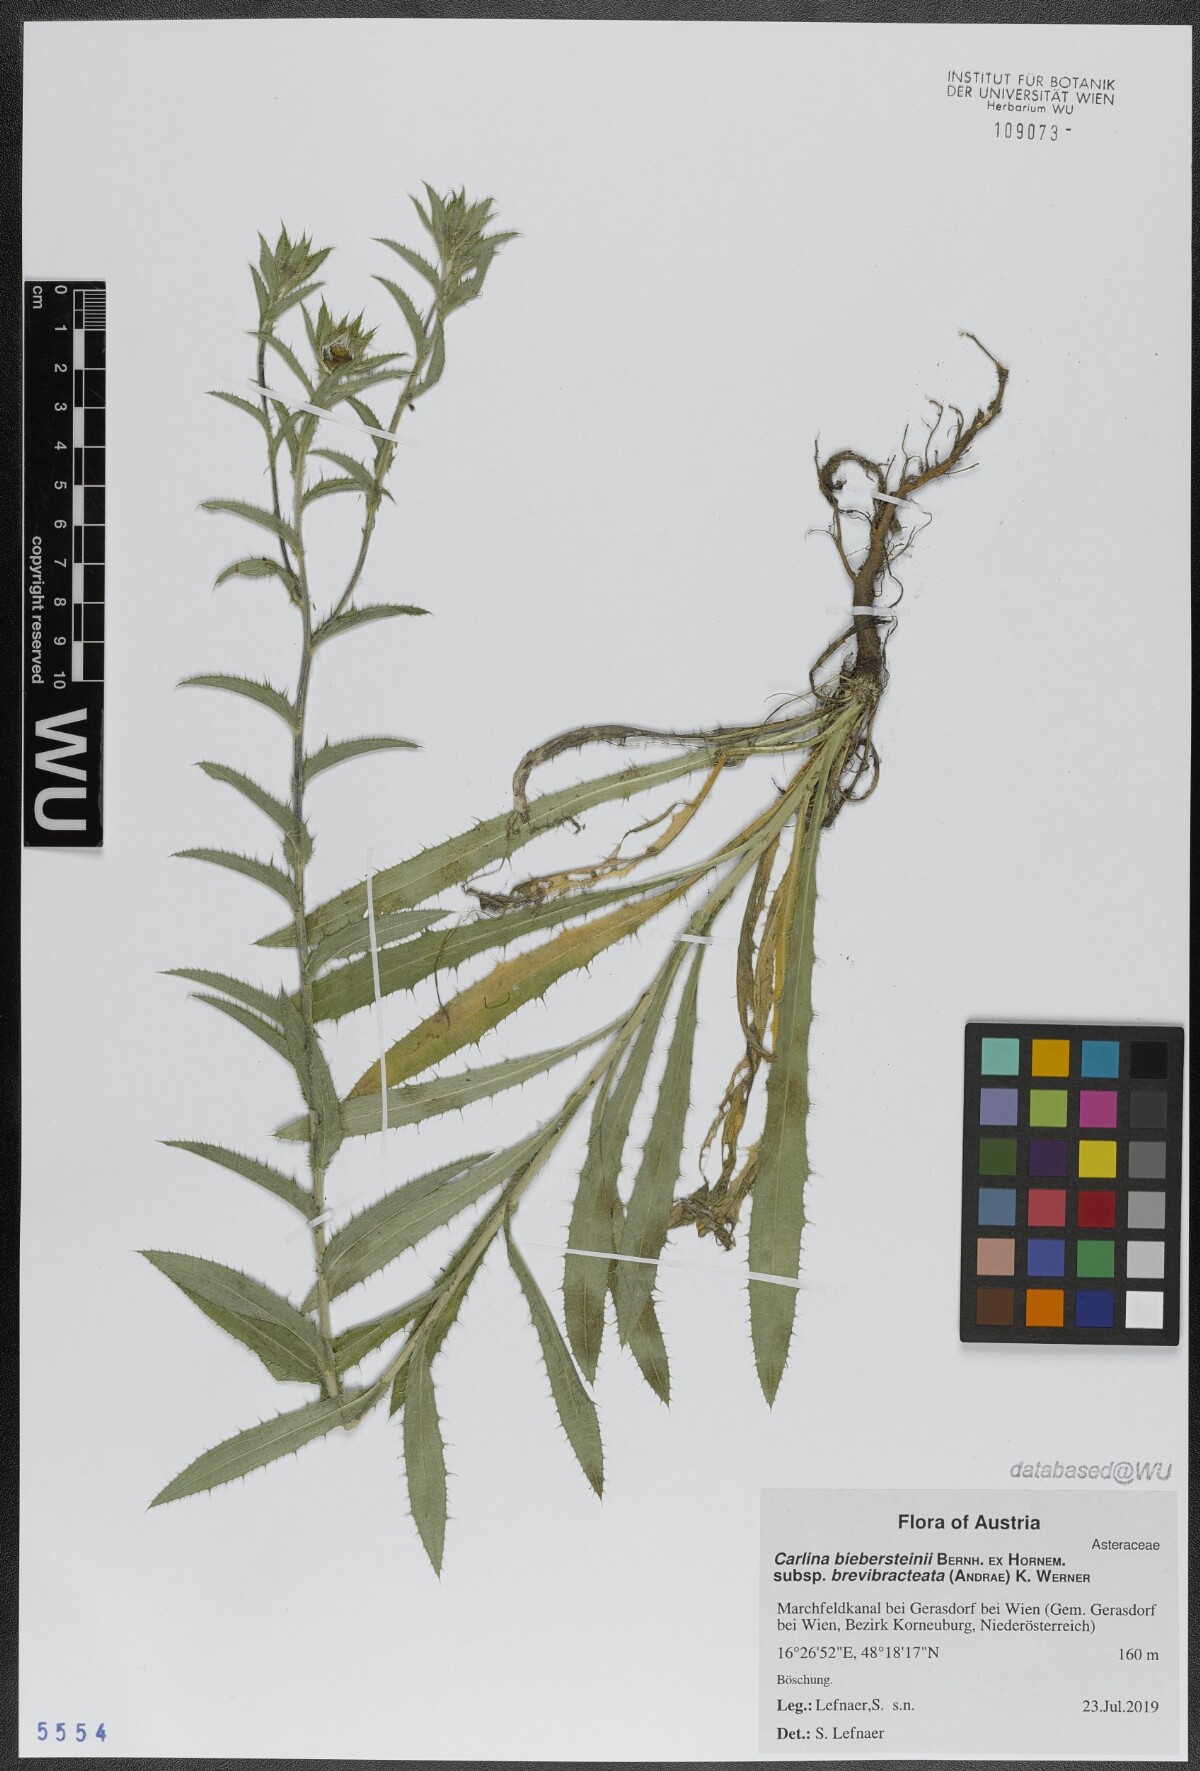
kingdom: Plantae
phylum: Tracheophyta
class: Magnoliopsida
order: Asterales
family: Asteraceae
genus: Carlina
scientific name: Carlina biebersteinii
